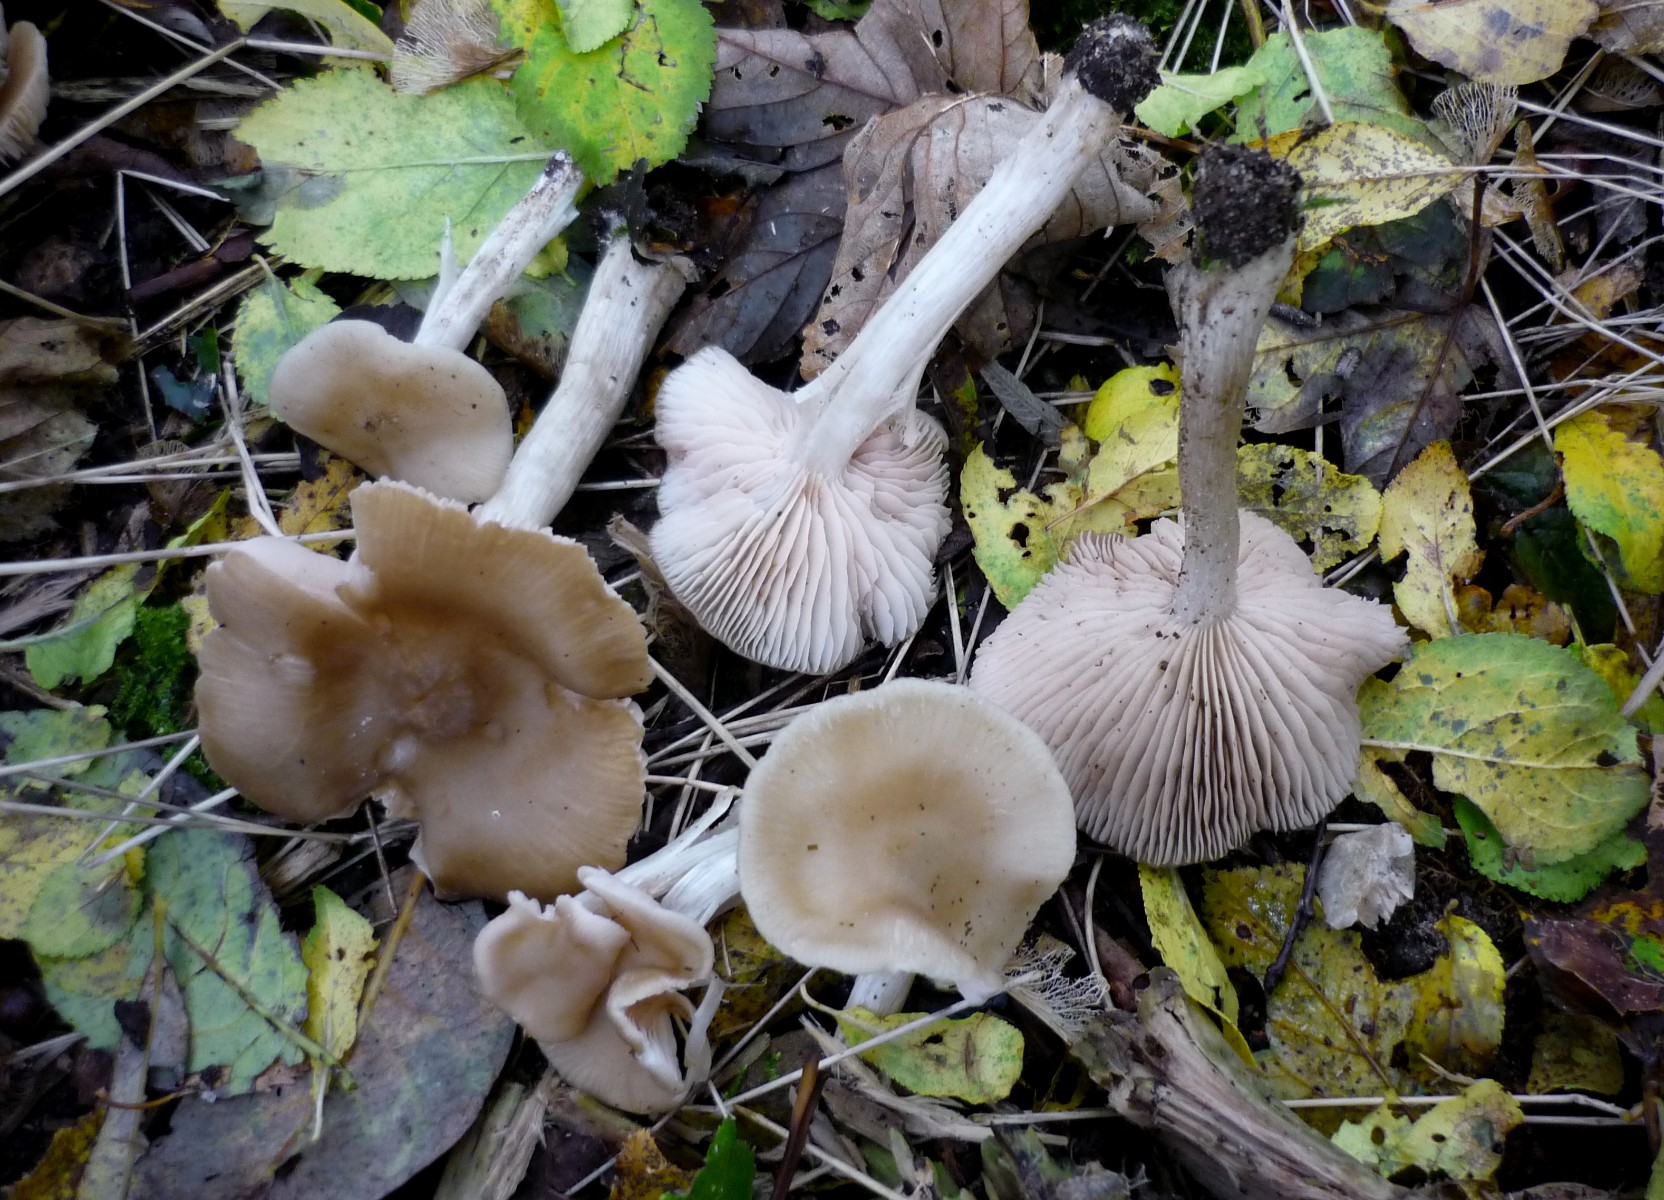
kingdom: Fungi
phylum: Basidiomycota
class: Agaricomycetes
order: Agaricales
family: Entolomataceae
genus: Entoloma
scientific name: Entoloma sericatum
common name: rank rødblad
